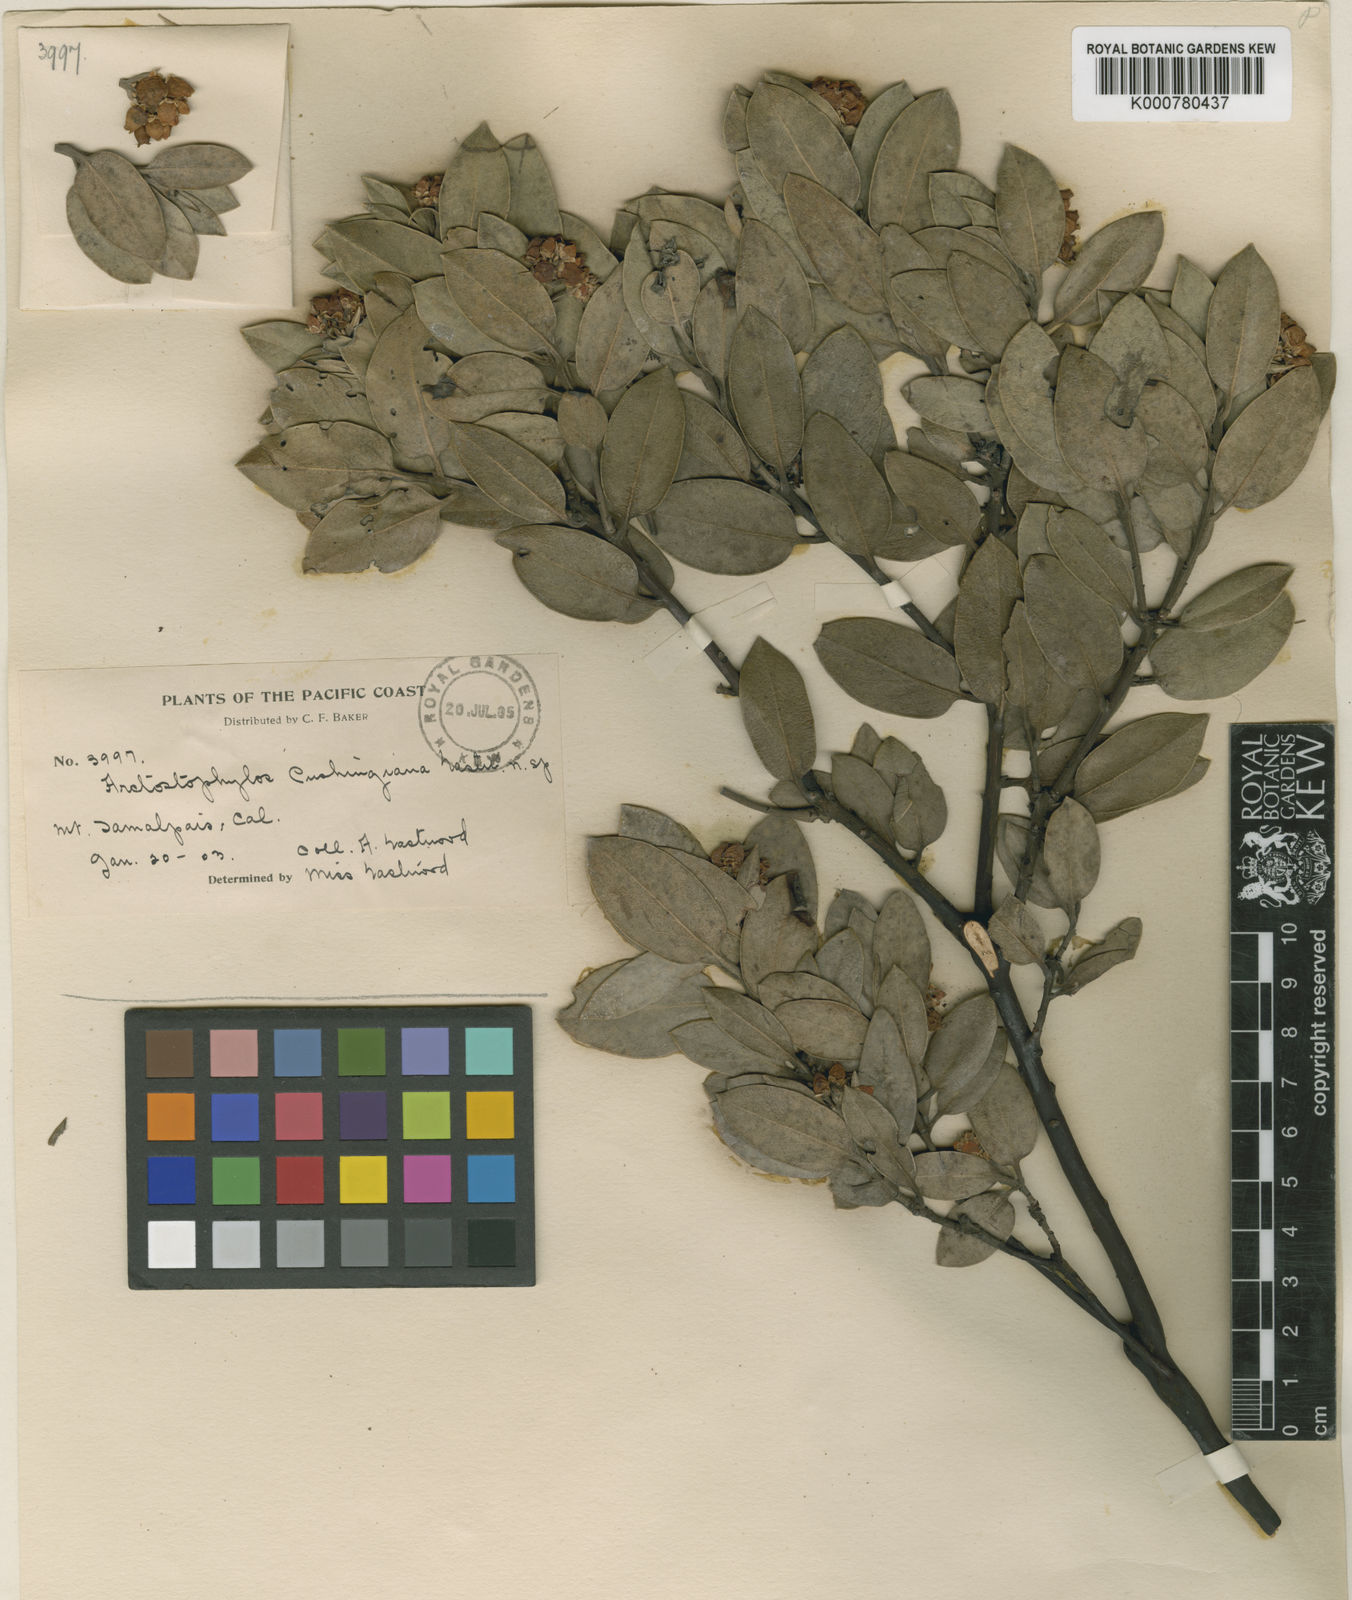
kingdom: Plantae
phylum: Tracheophyta
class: Magnoliopsida
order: Ericales
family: Ericaceae
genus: Arctostaphylos
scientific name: Arctostaphylos glandulosa
